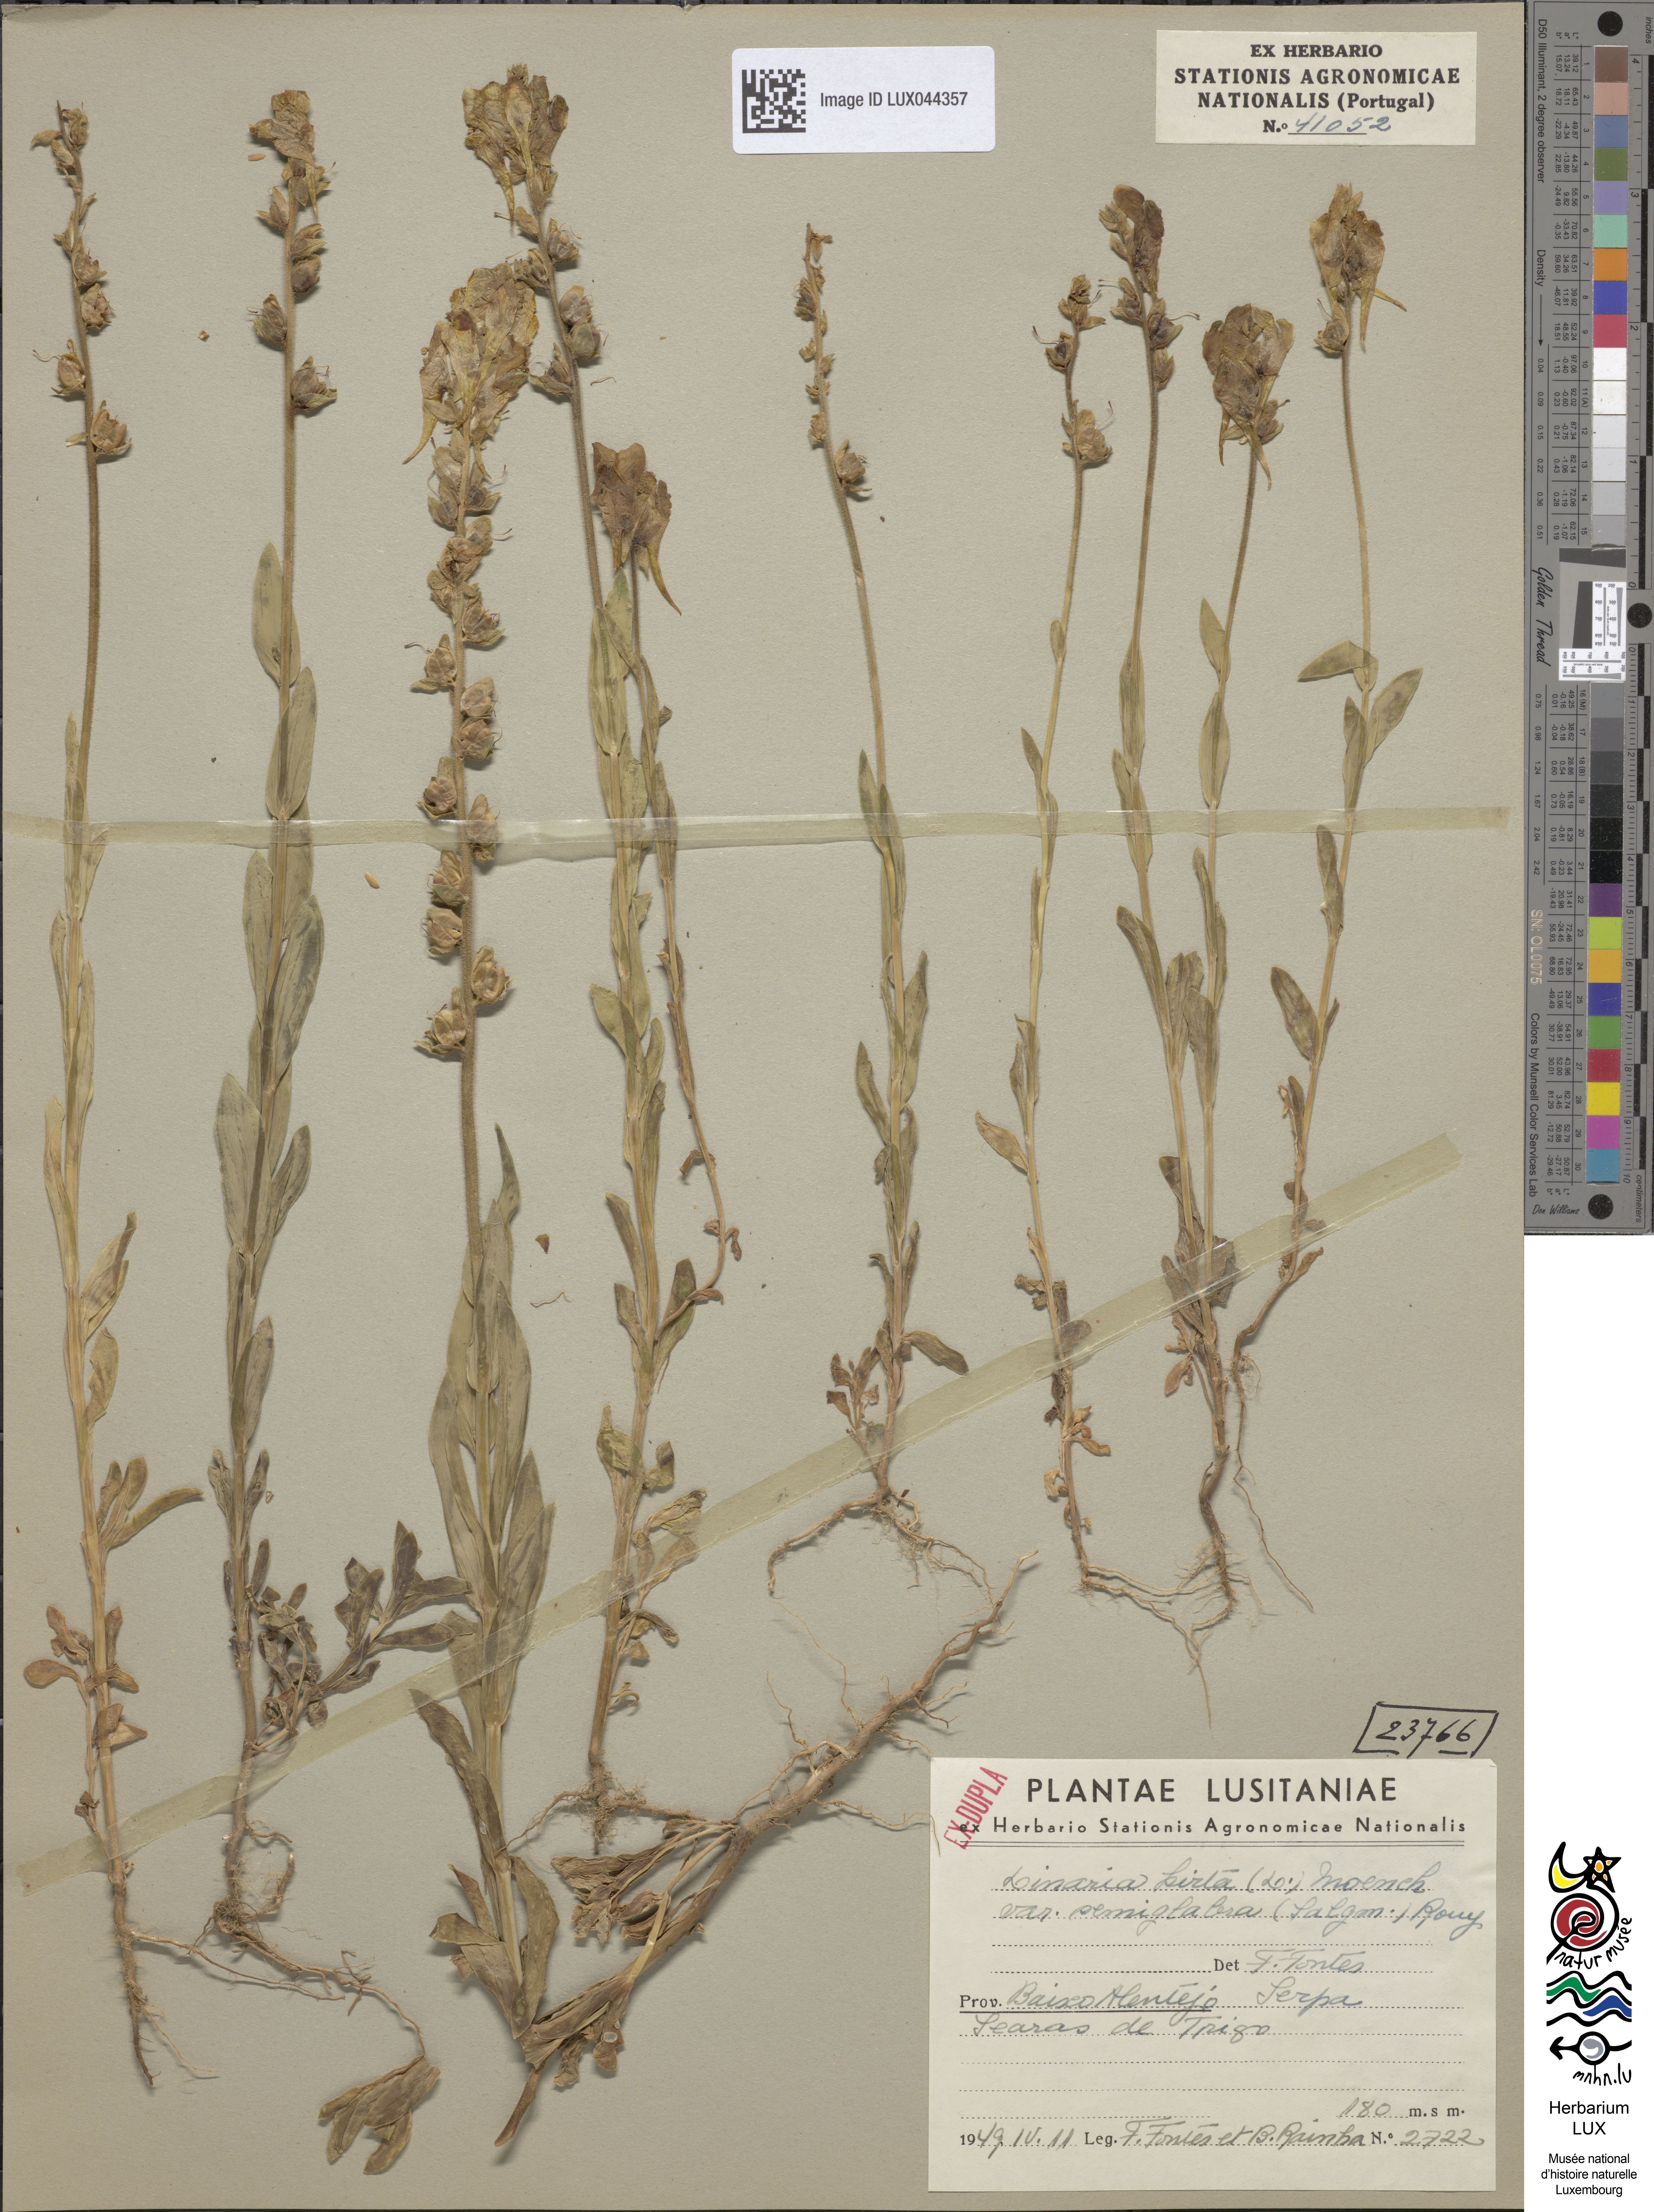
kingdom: Plantae
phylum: Tracheophyta
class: Magnoliopsida
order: Lamiales
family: Plantaginaceae
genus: Linaria
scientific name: Linaria hirta
